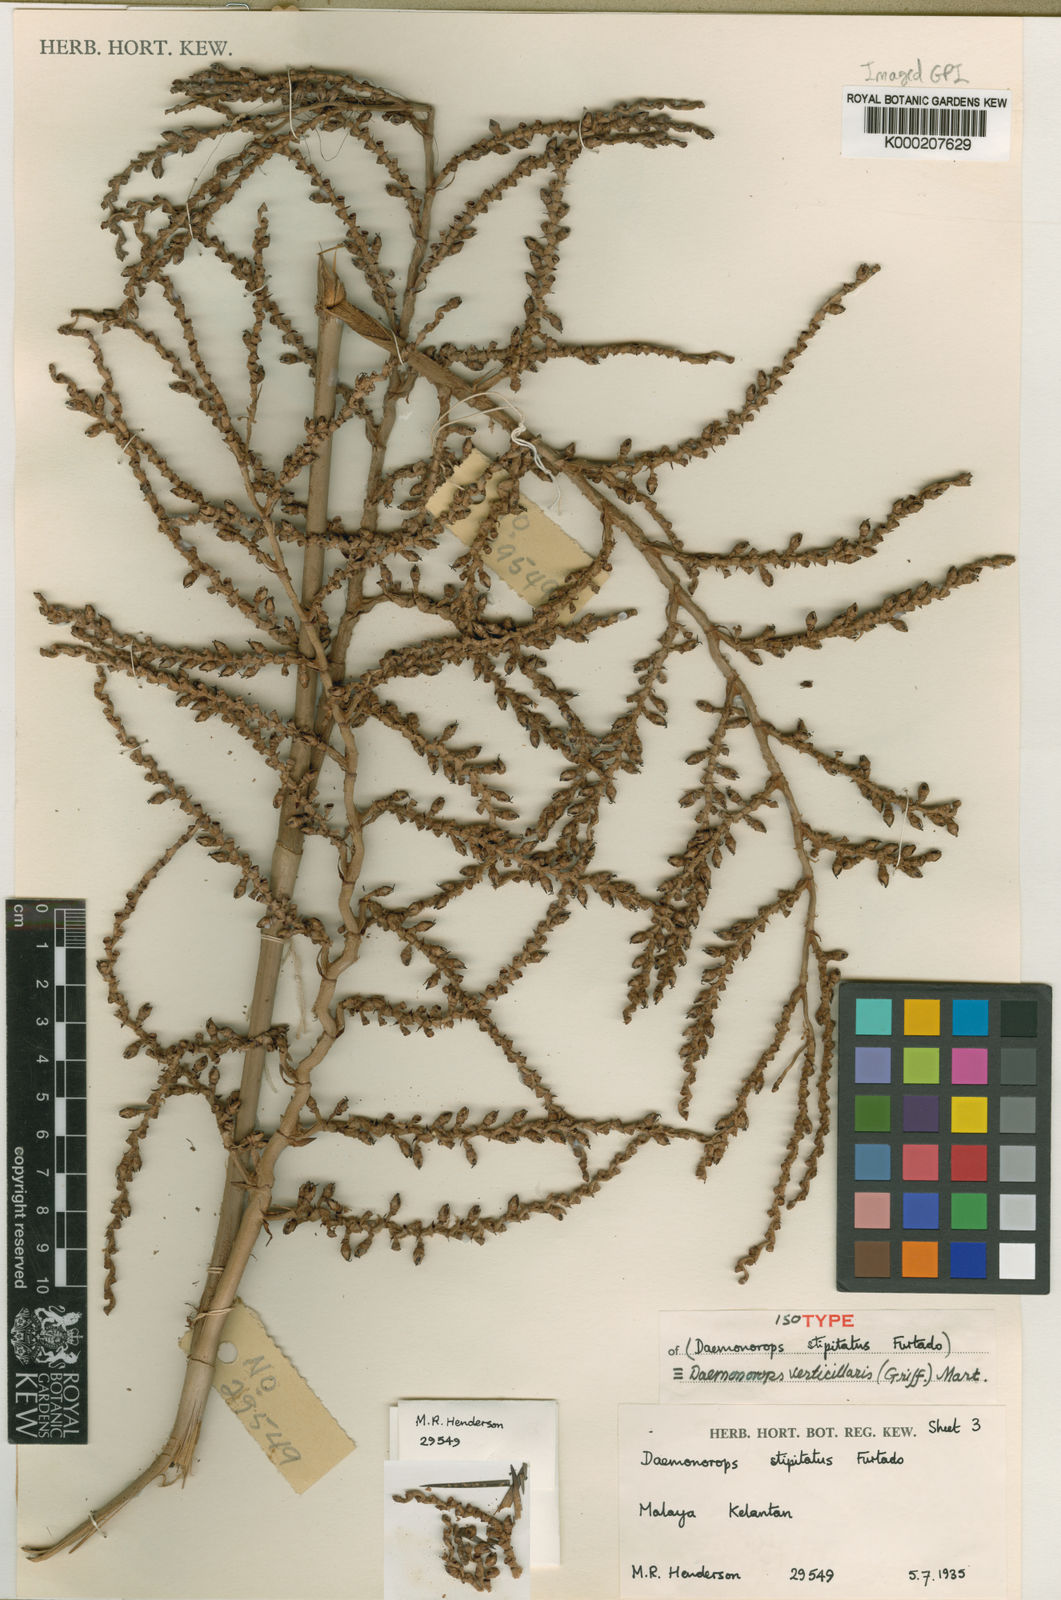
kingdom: Plantae
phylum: Tracheophyta
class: Liliopsida
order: Arecales
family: Arecaceae
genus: Calamus
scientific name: Calamus verticillaris
